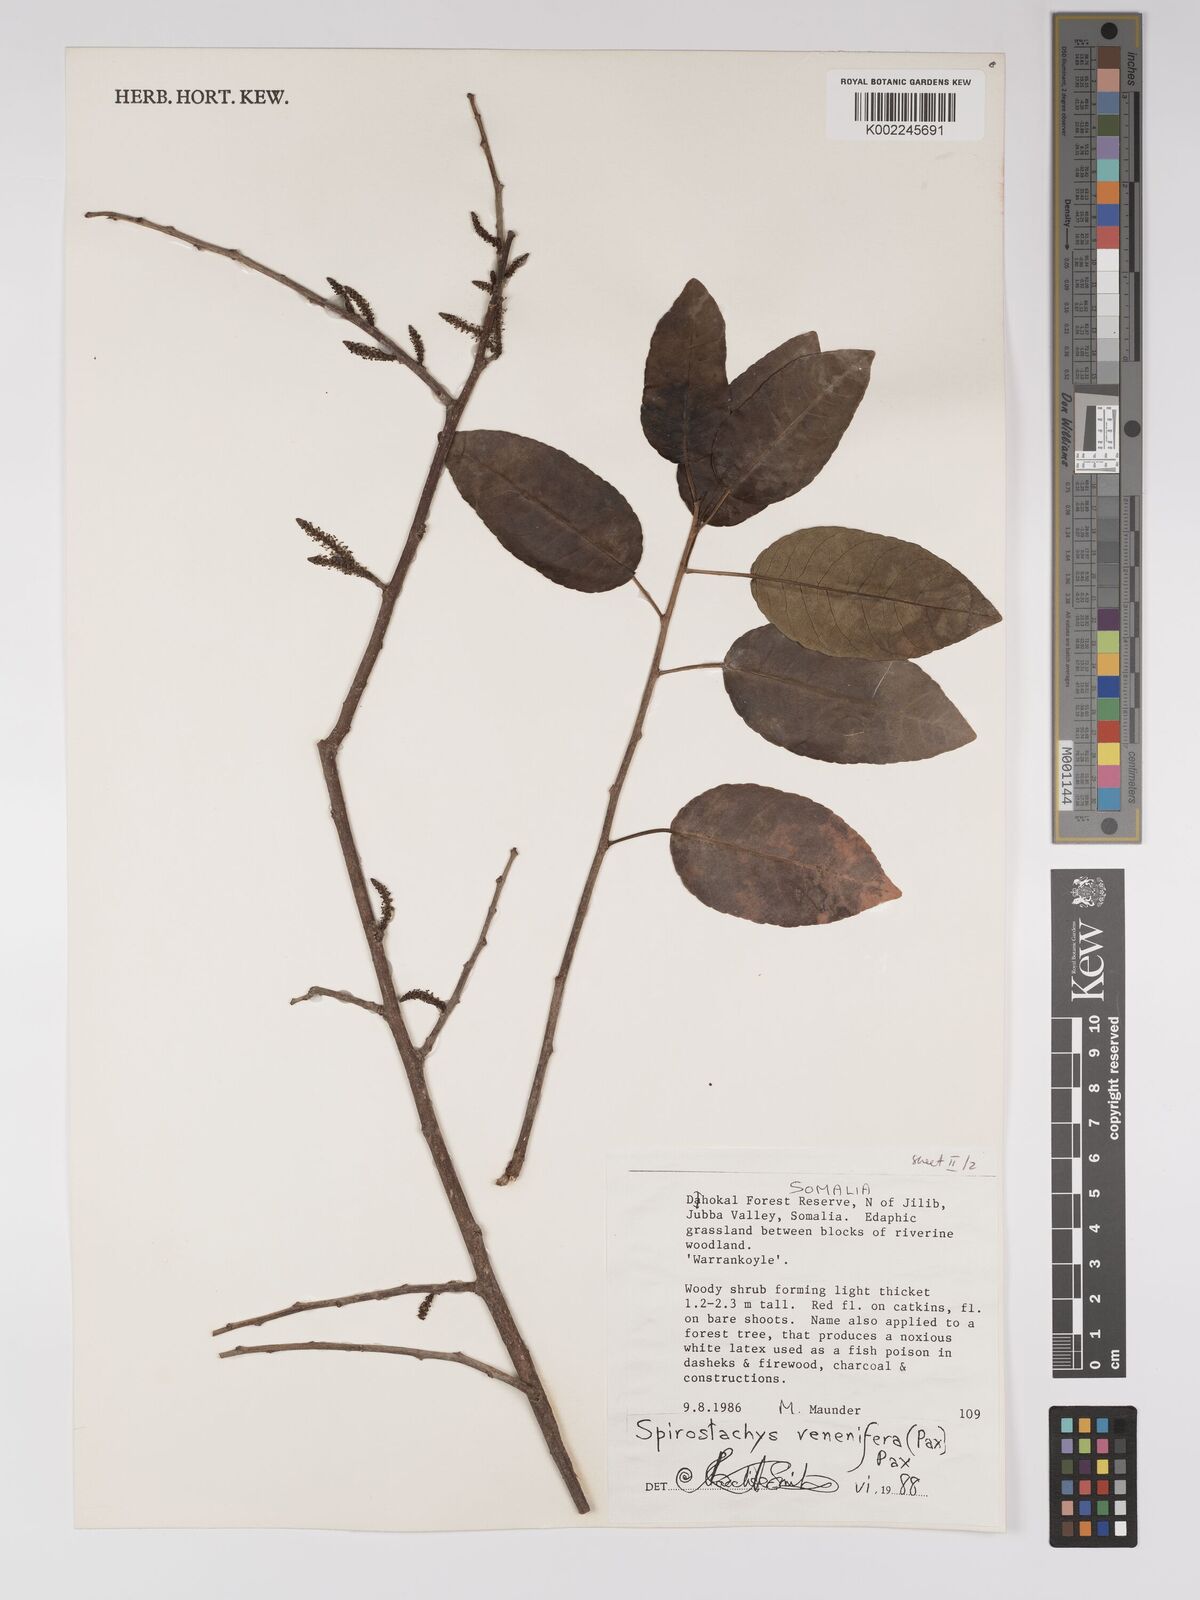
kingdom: Plantae
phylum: Tracheophyta
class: Magnoliopsida
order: Malpighiales
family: Euphorbiaceae
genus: Spirostachys
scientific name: Spirostachys venenifera
